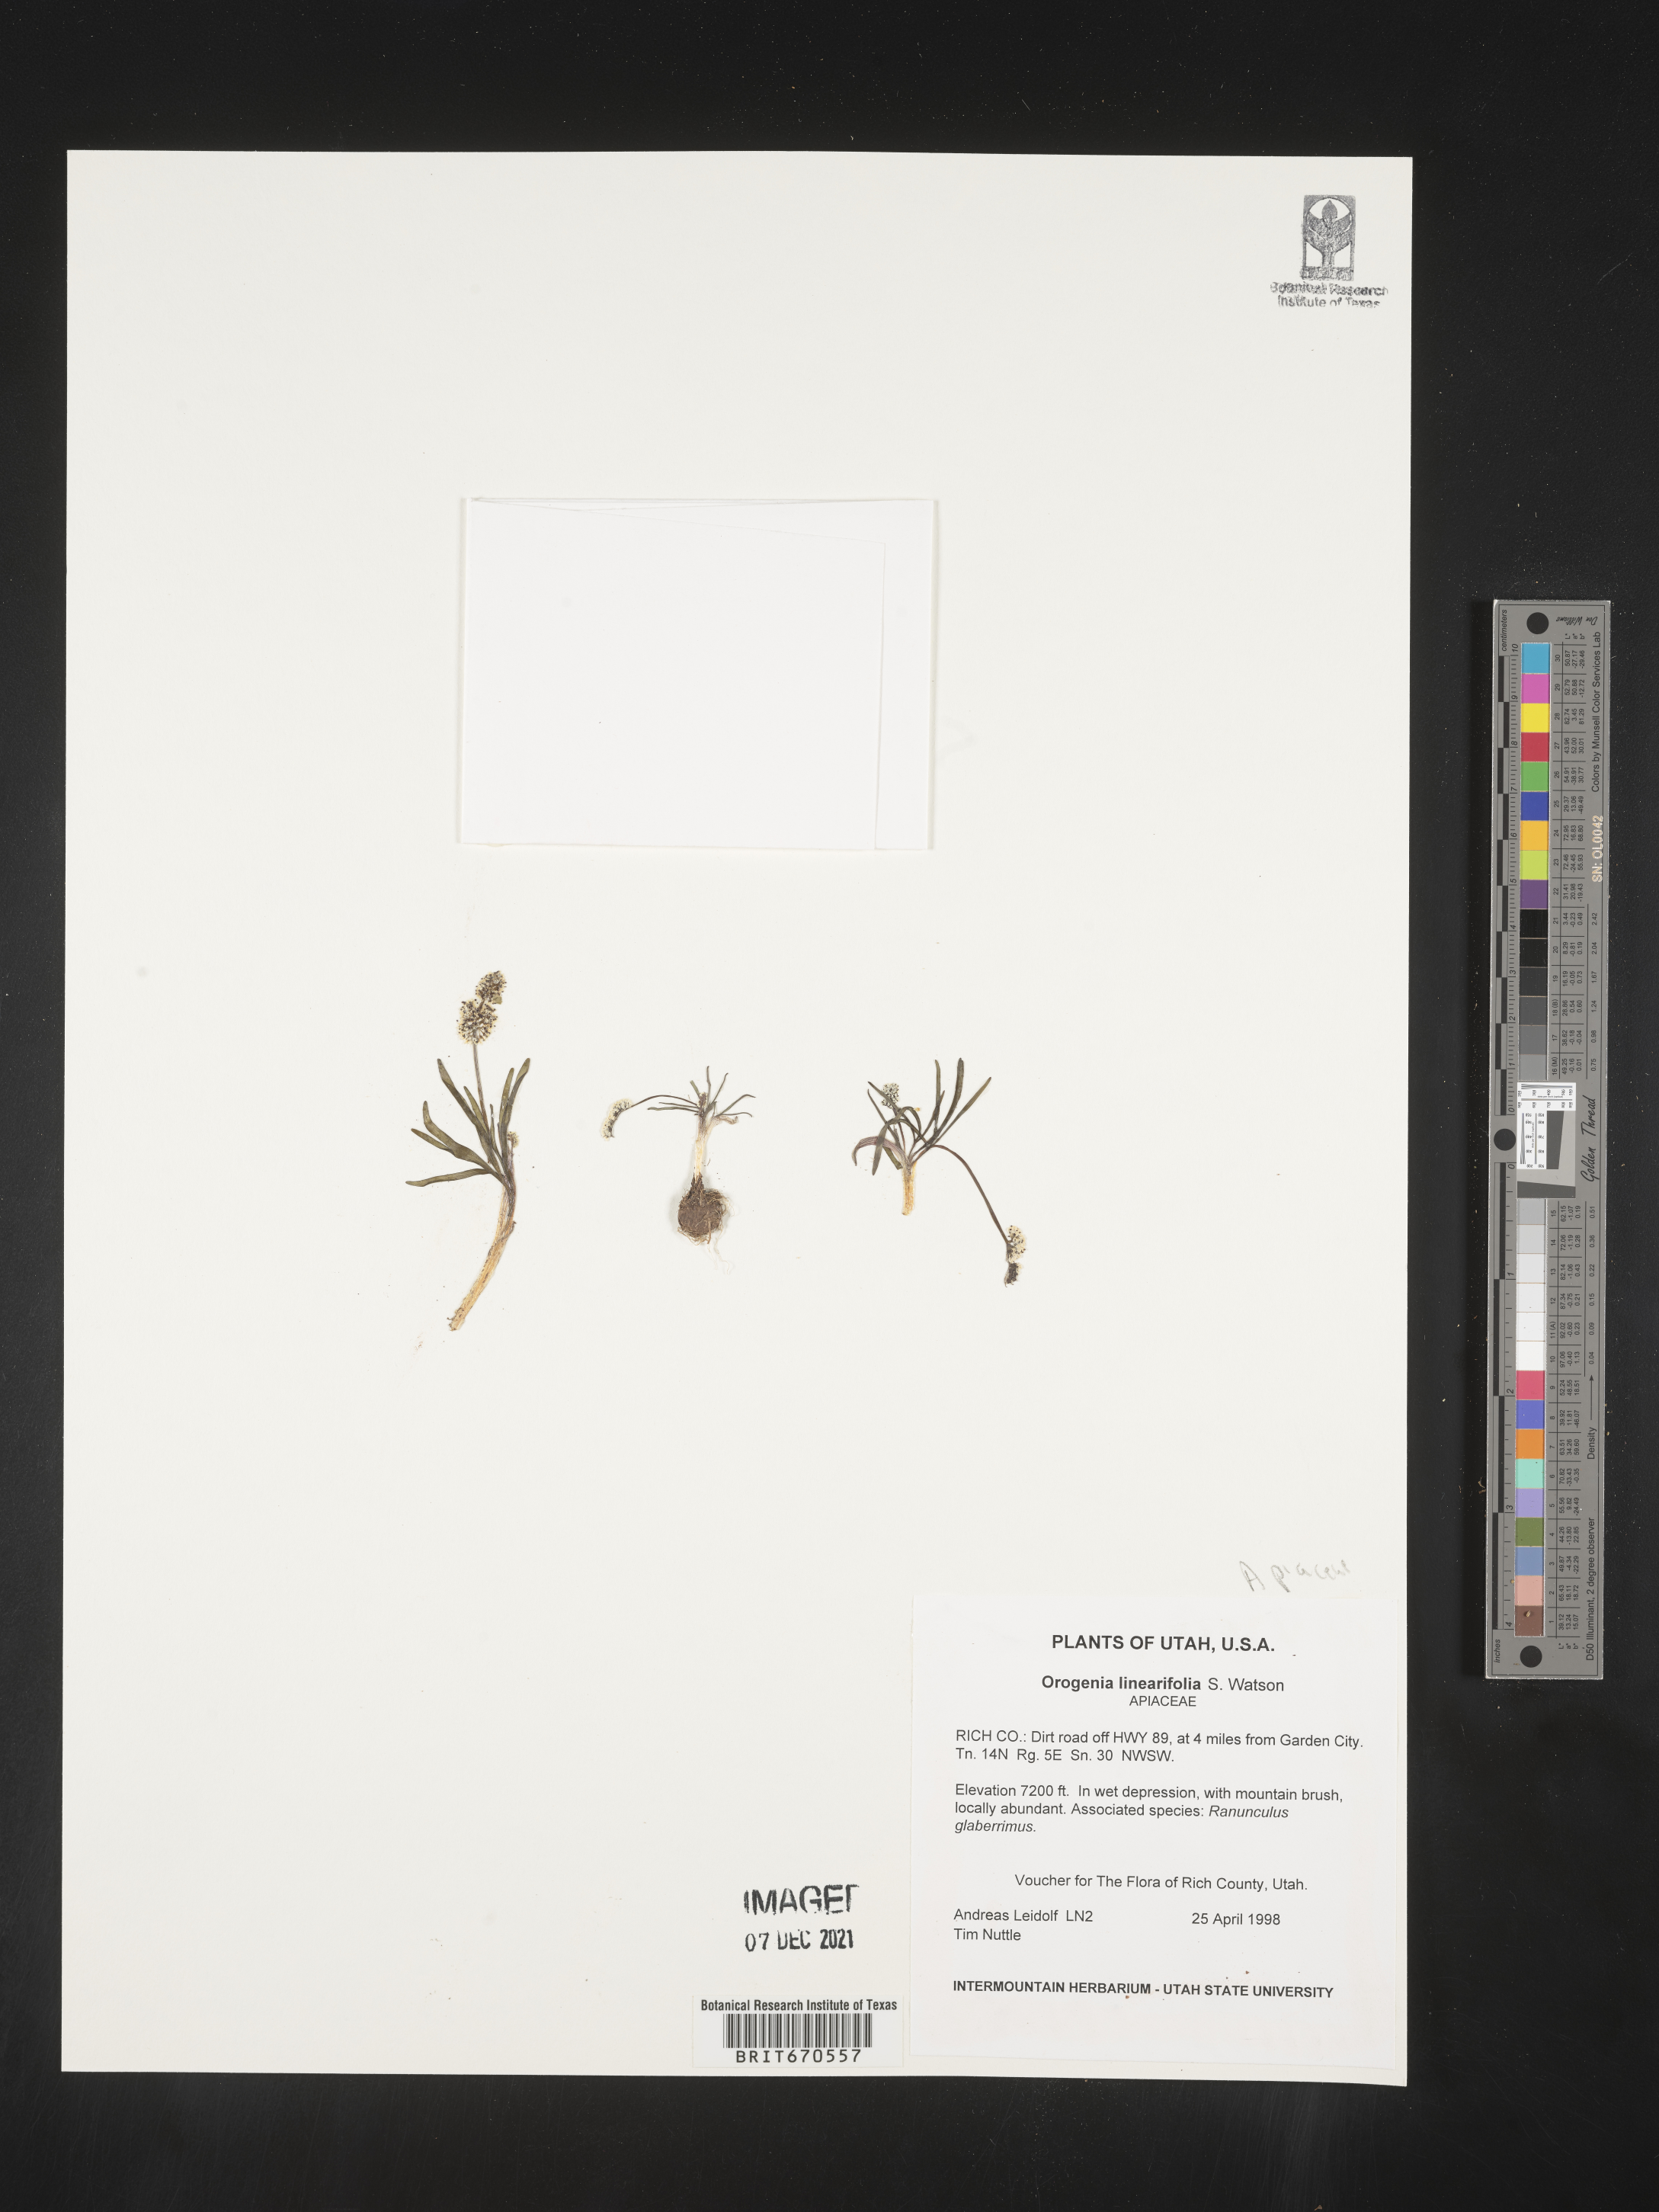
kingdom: Plantae
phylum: Tracheophyta
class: Magnoliopsida
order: Apiales
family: Apiaceae
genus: Lomatium
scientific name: Lomatium linearifolium
